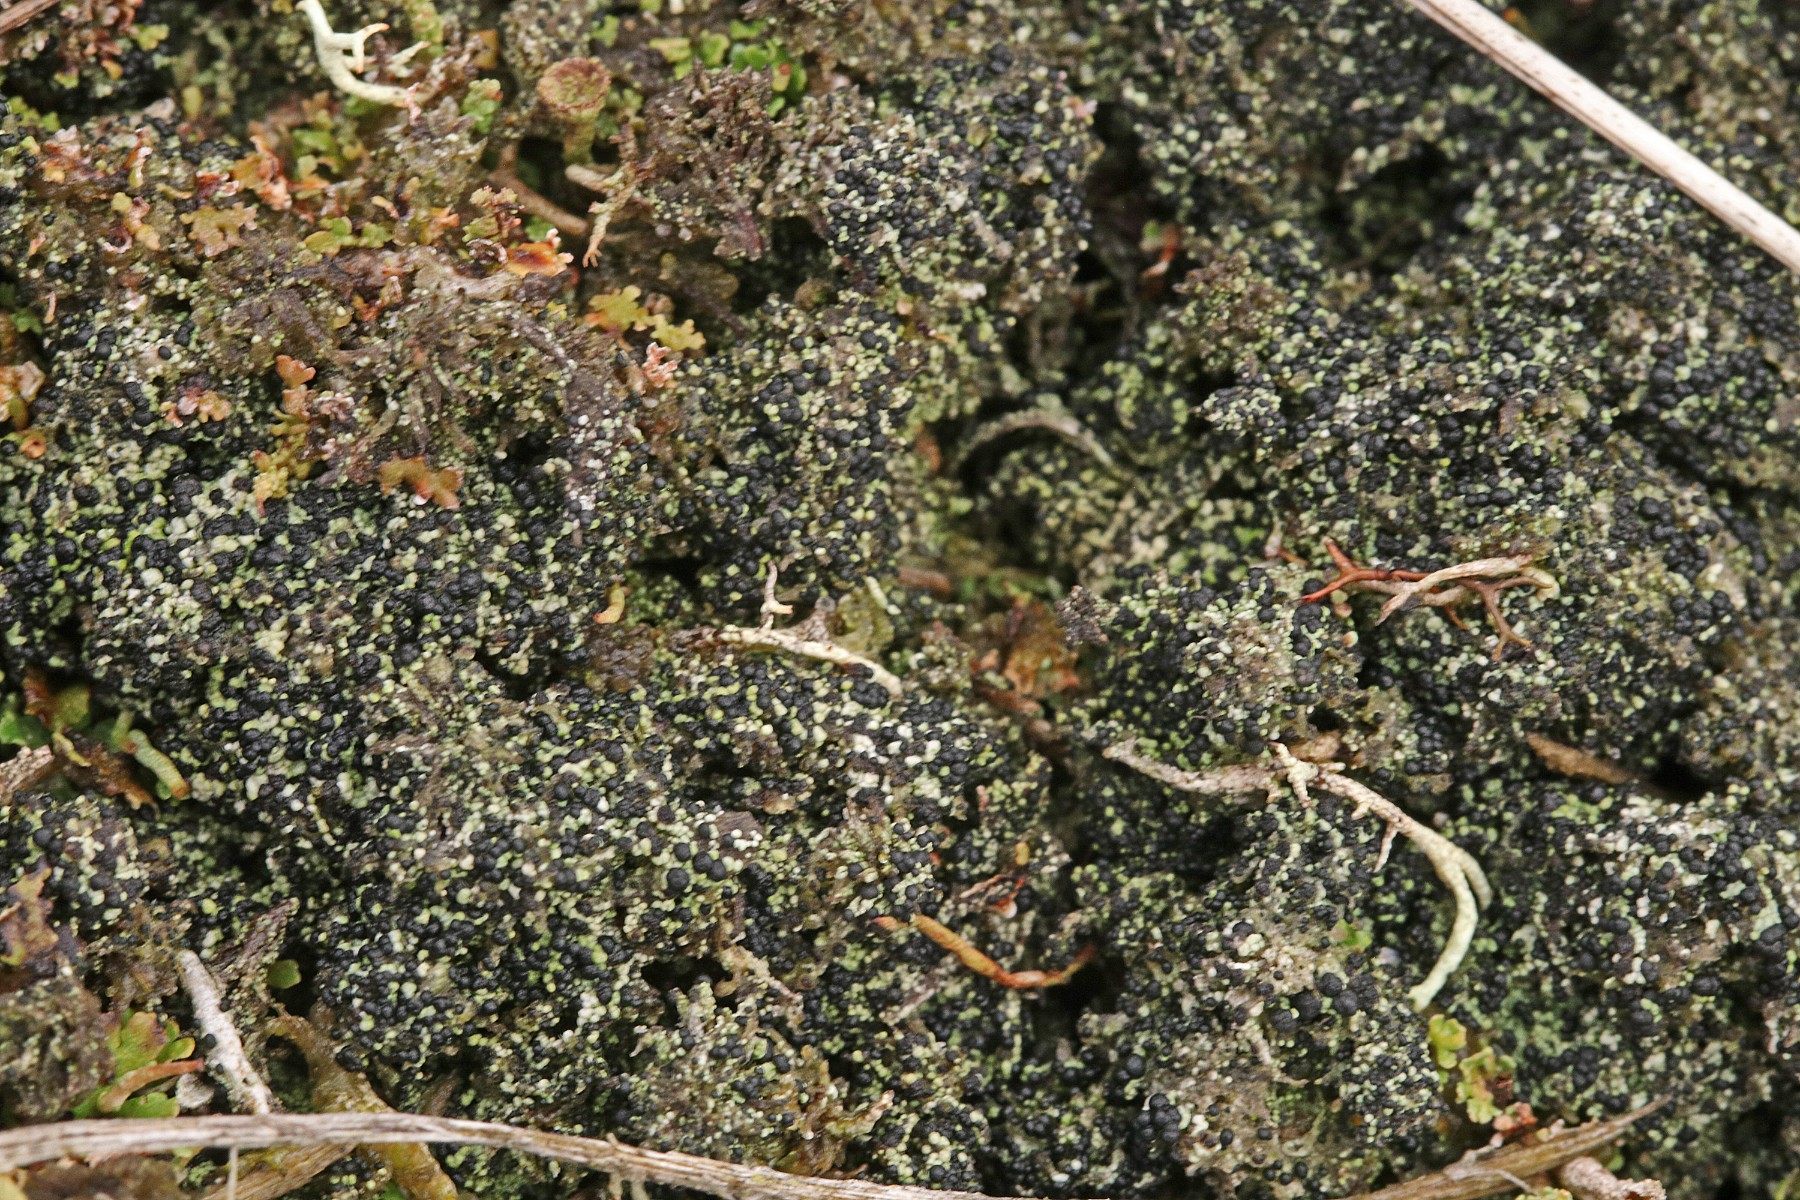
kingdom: Fungi
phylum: Ascomycota
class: Lecanoromycetes
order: Lecanorales
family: Byssolomataceae
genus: Micarea
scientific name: Micarea lignaria
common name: tørve-knaplav
